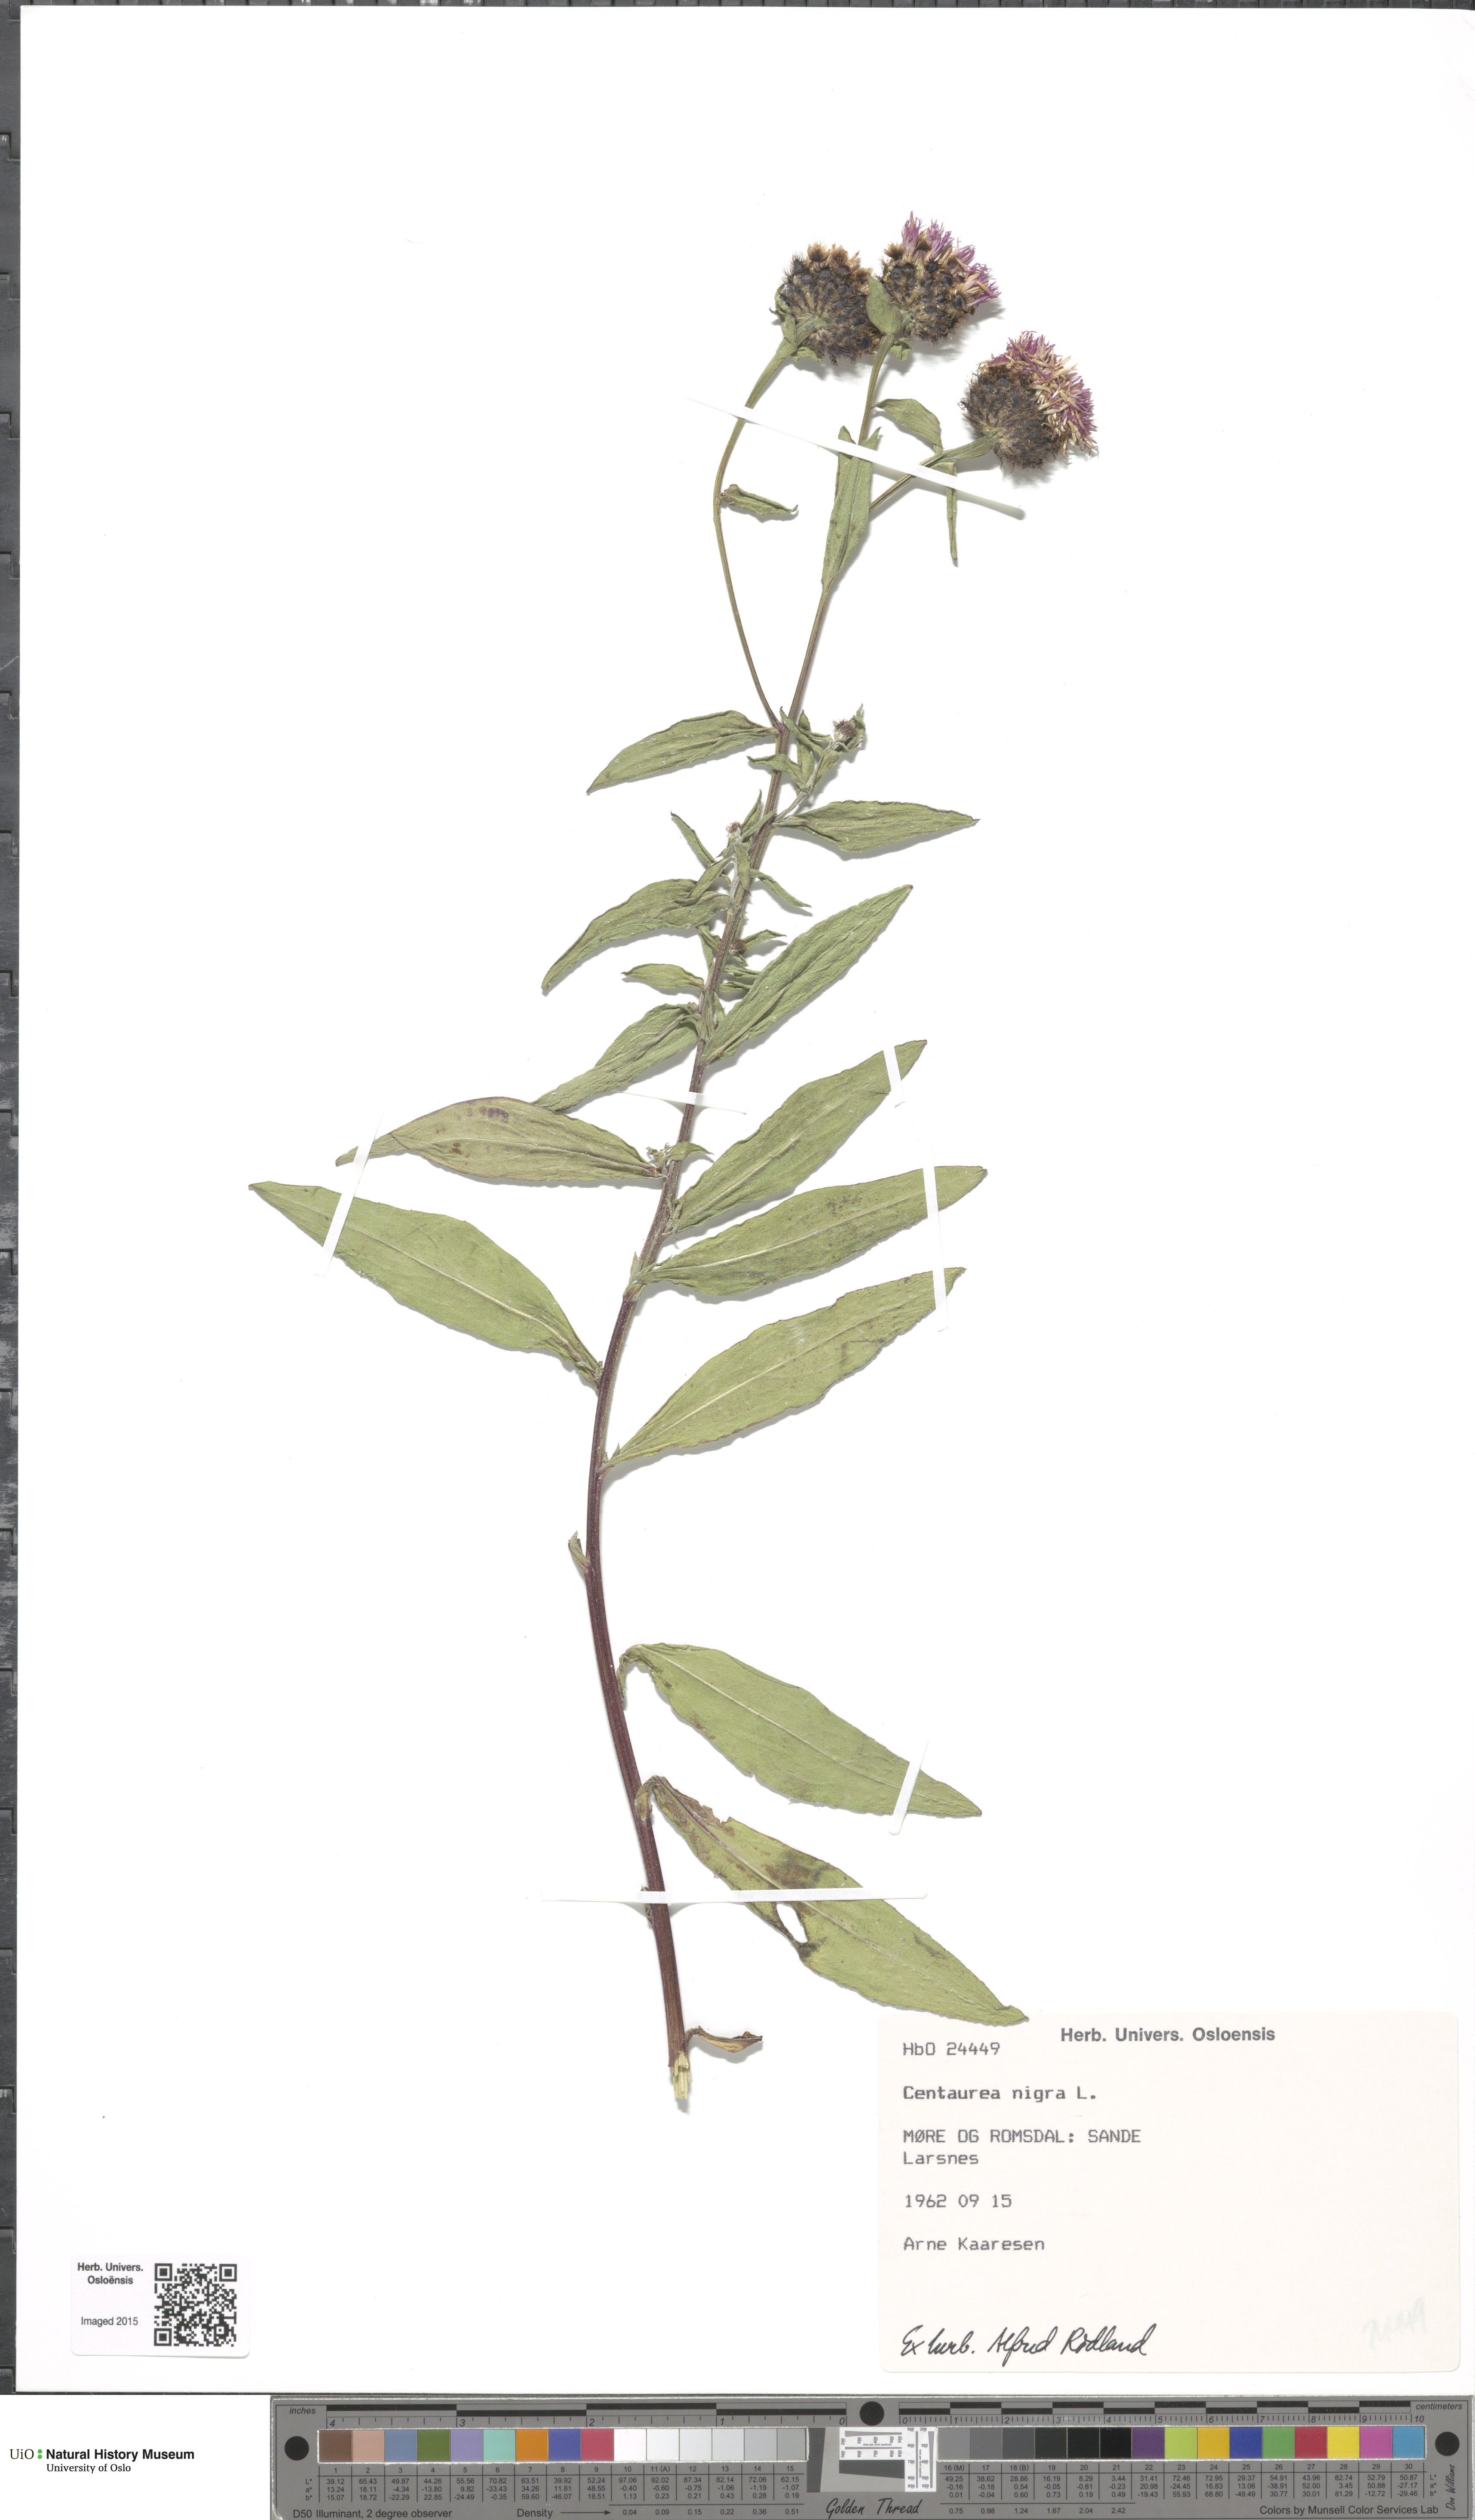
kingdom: Plantae
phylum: Tracheophyta
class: Magnoliopsida
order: Asterales
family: Asteraceae
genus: Centaurea
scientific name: Centaurea nigra
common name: Lesser knapweed
